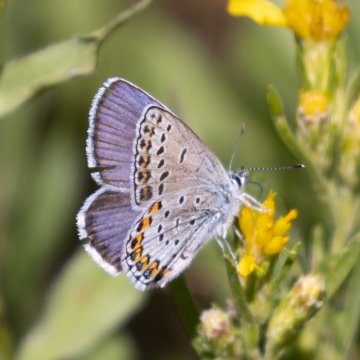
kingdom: Animalia
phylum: Arthropoda
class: Insecta
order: Lepidoptera
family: Lycaenidae
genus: Lycaeides
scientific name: Lycaeides melissa
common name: Melissa Blue
